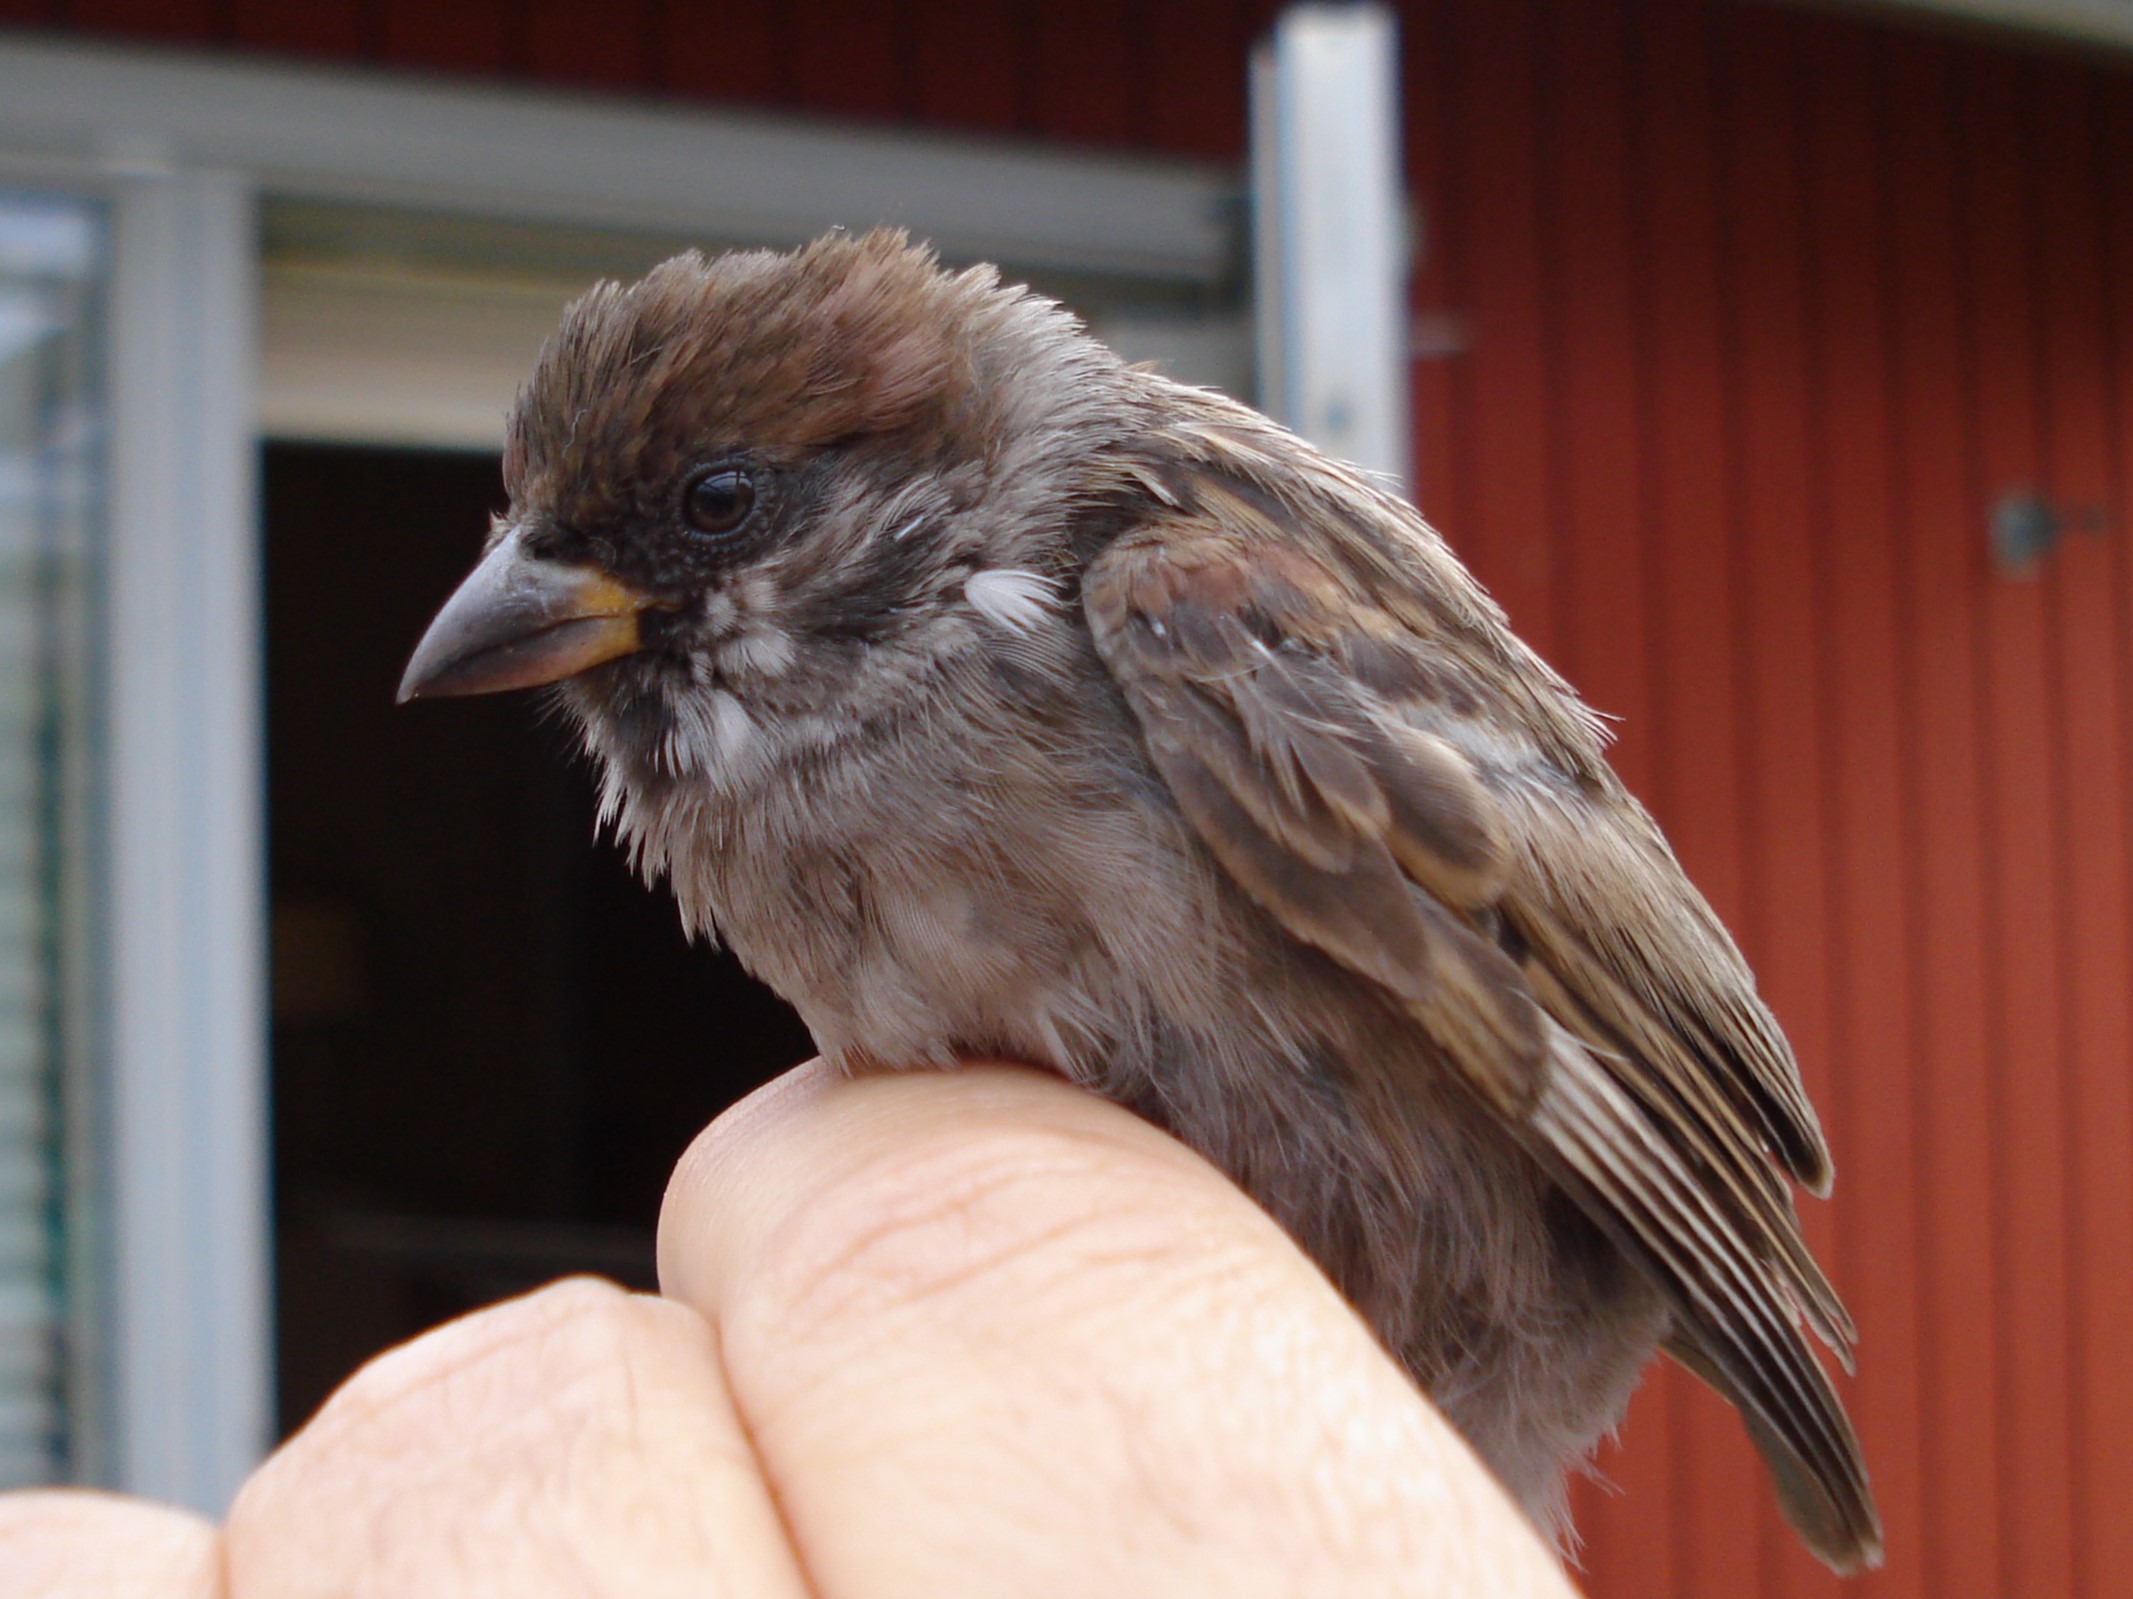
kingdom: Animalia
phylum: Chordata
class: Aves
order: Passeriformes
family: Passeridae
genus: Passer
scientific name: Passer montanus
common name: Skovspurv
